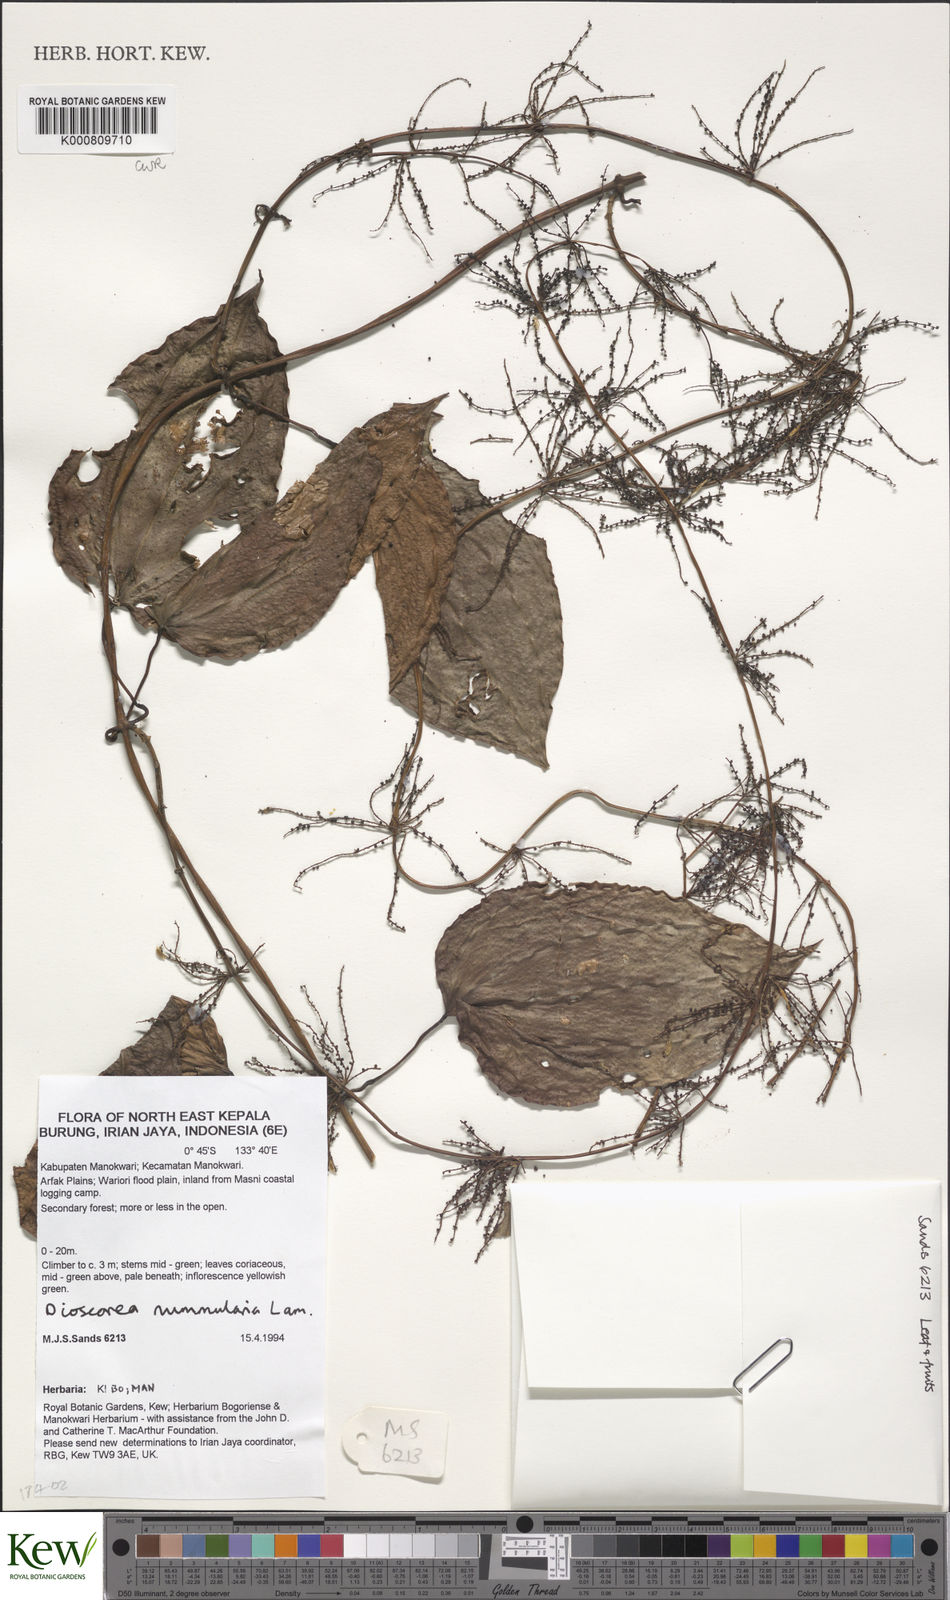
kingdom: Plantae
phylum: Tracheophyta
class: Liliopsida
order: Dioscoreales
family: Dioscoreaceae
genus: Dioscorea
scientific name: Dioscorea nummularia
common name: Pacific yam
